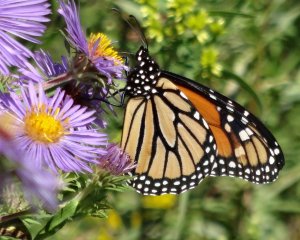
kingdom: Animalia
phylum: Arthropoda
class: Insecta
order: Lepidoptera
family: Nymphalidae
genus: Danaus
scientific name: Danaus plexippus
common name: Monarch
